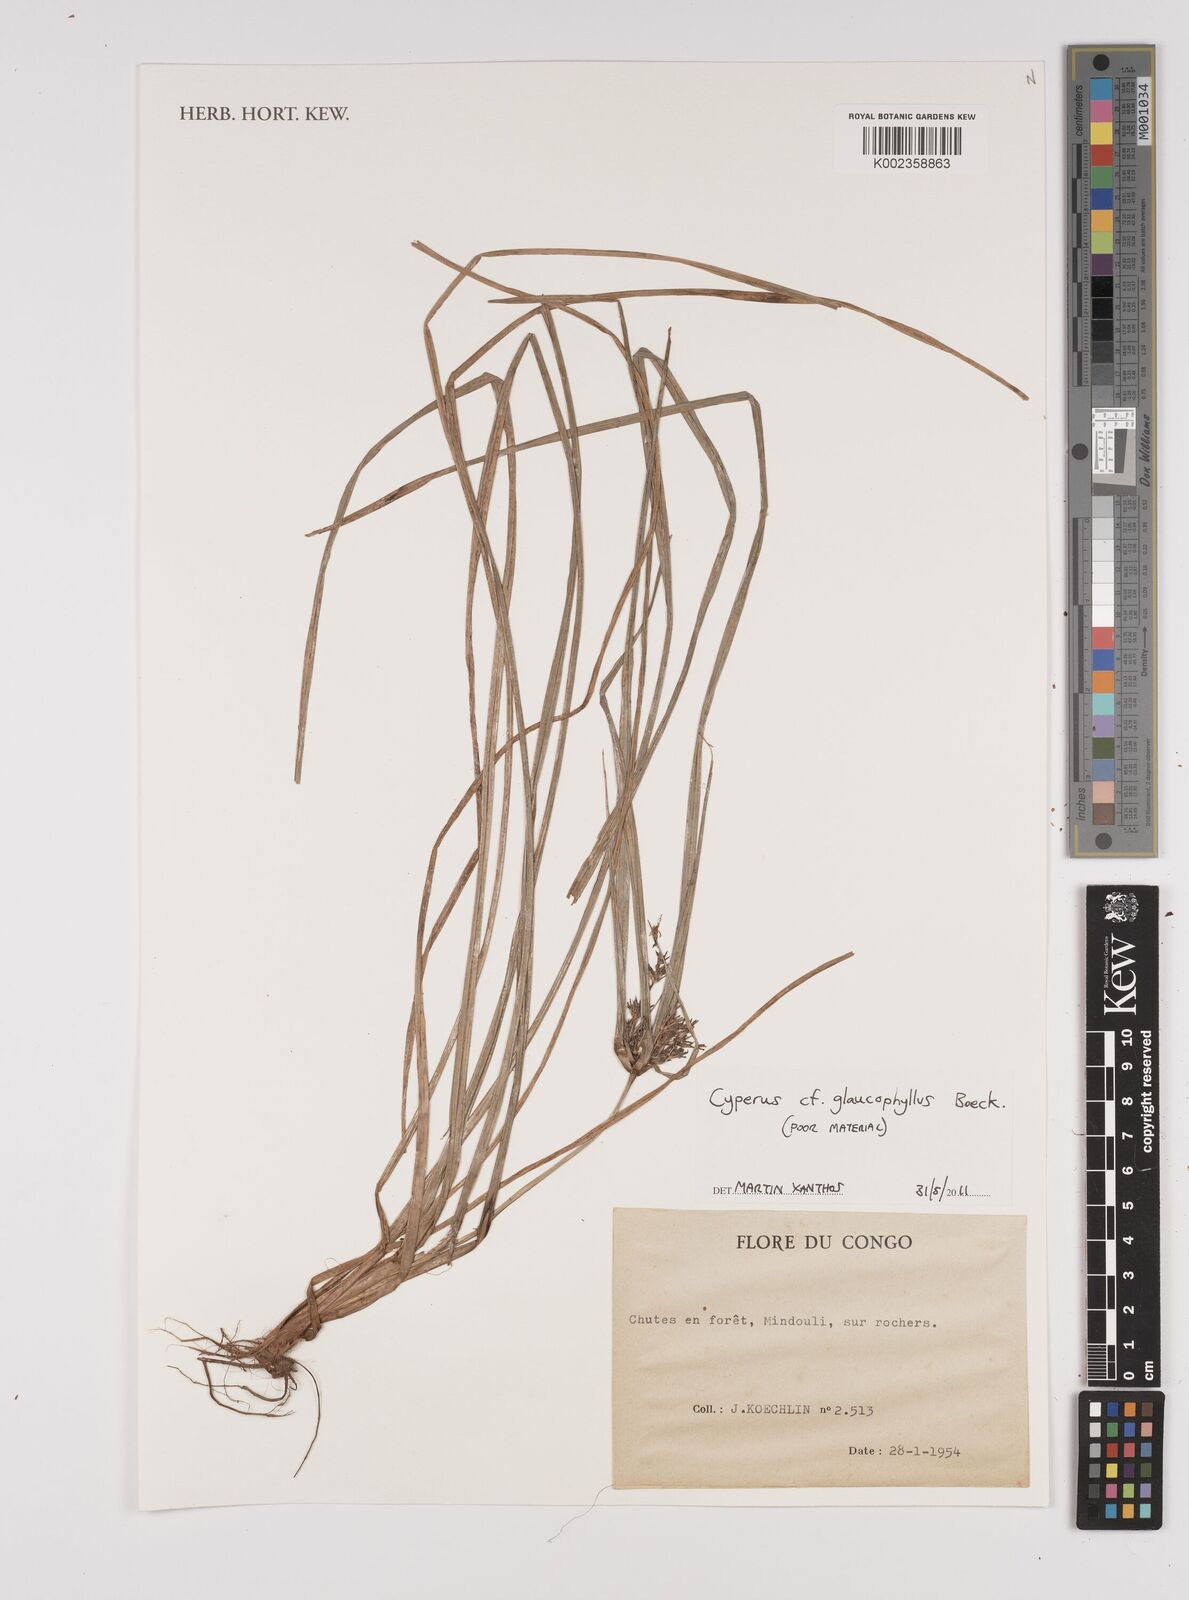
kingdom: Plantae
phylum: Tracheophyta
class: Liliopsida
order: Poales
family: Cyperaceae
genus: Cyperus
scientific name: Cyperus glaucophyllus
